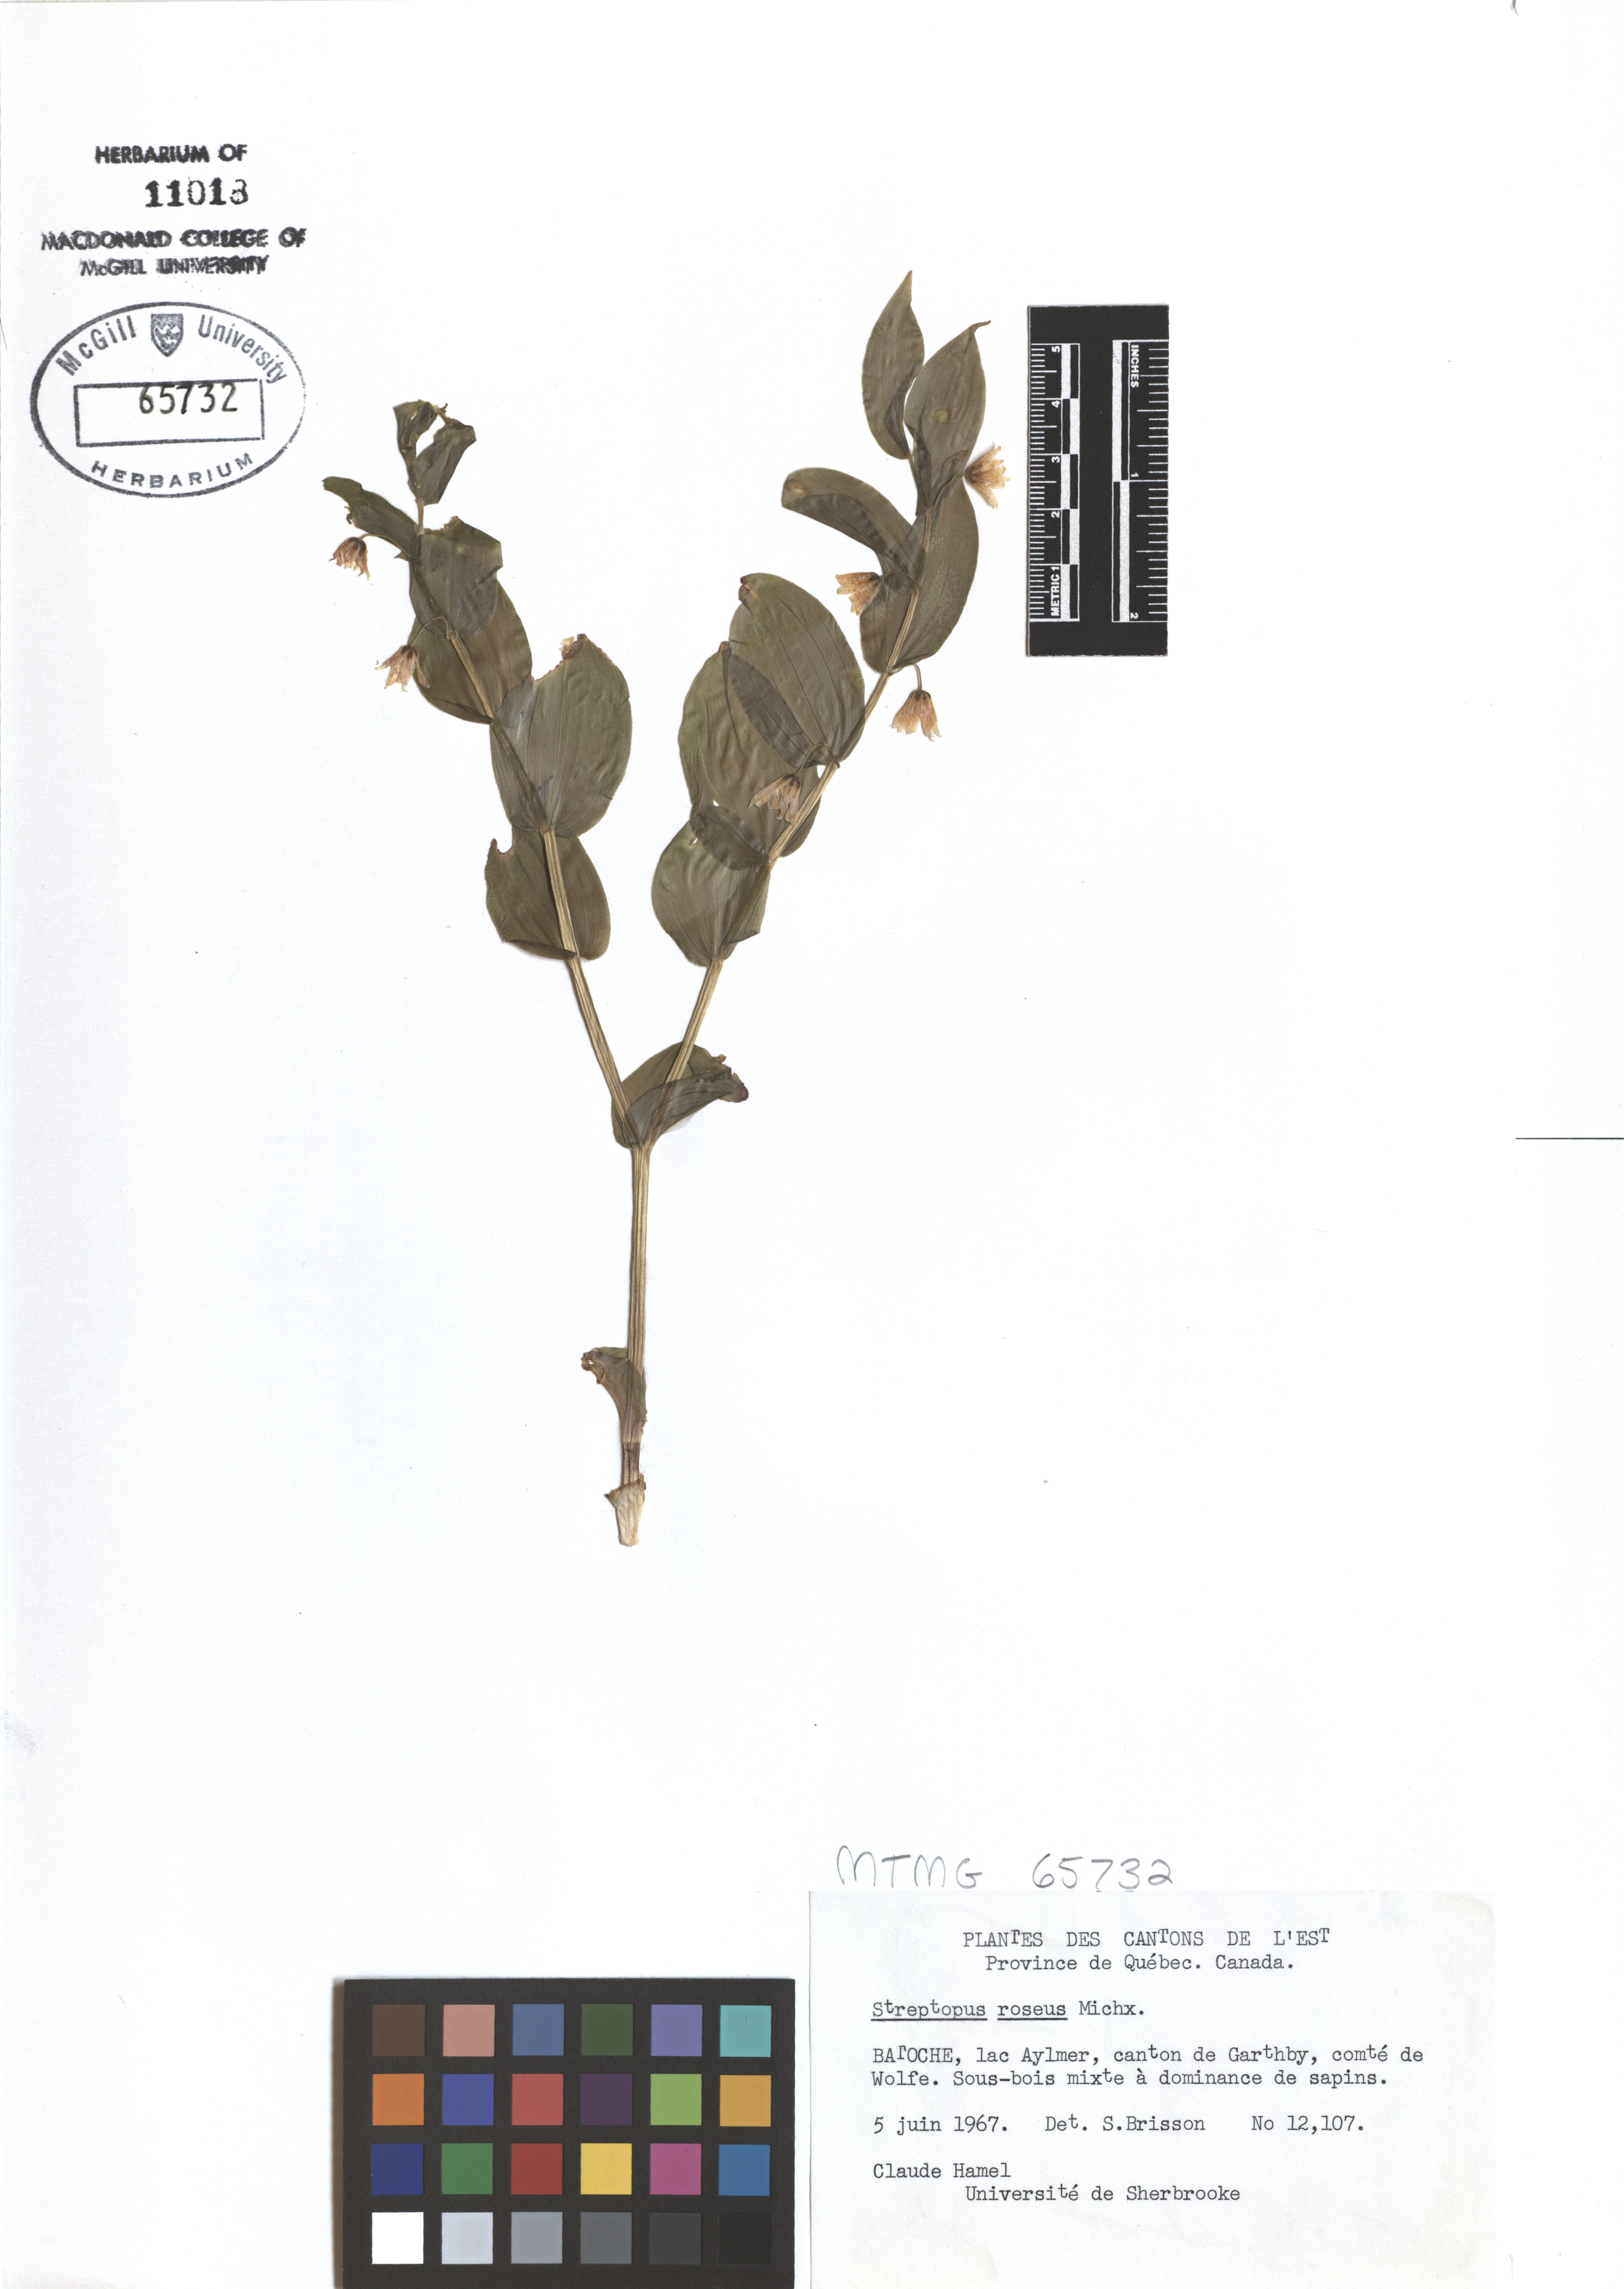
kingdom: Plantae
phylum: Tracheophyta
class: Liliopsida
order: Liliales
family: Liliaceae
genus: Streptopus
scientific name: Streptopus lanceolatus
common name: Rose mandarin
